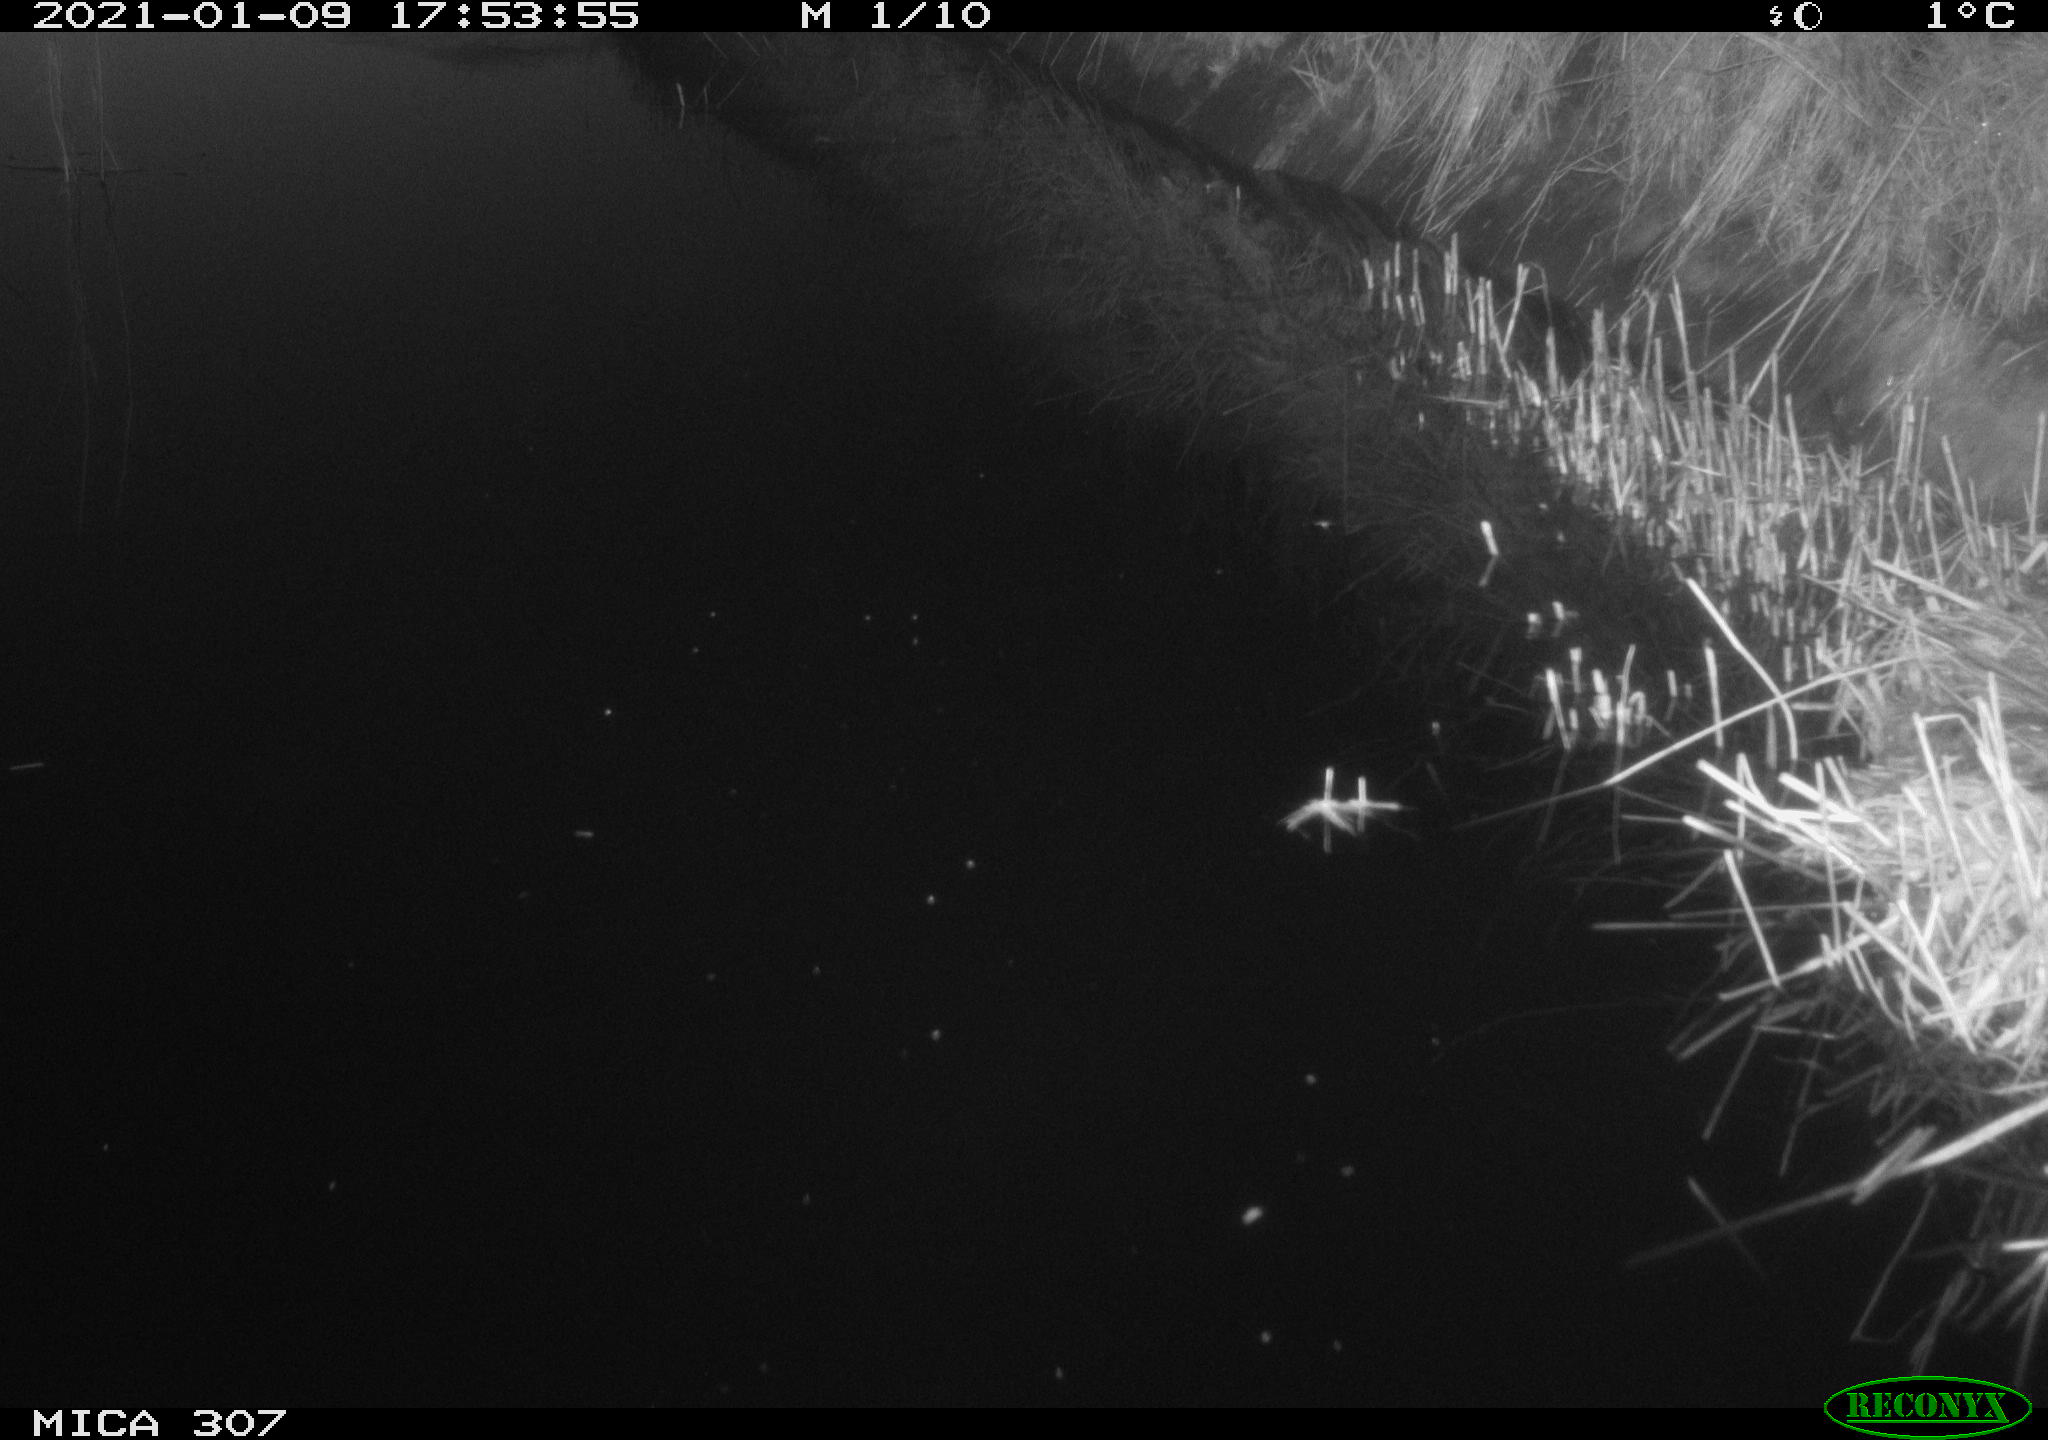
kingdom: Animalia
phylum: Chordata
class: Mammalia
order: Rodentia
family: Muridae
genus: Rattus
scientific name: Rattus norvegicus
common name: Brown rat
